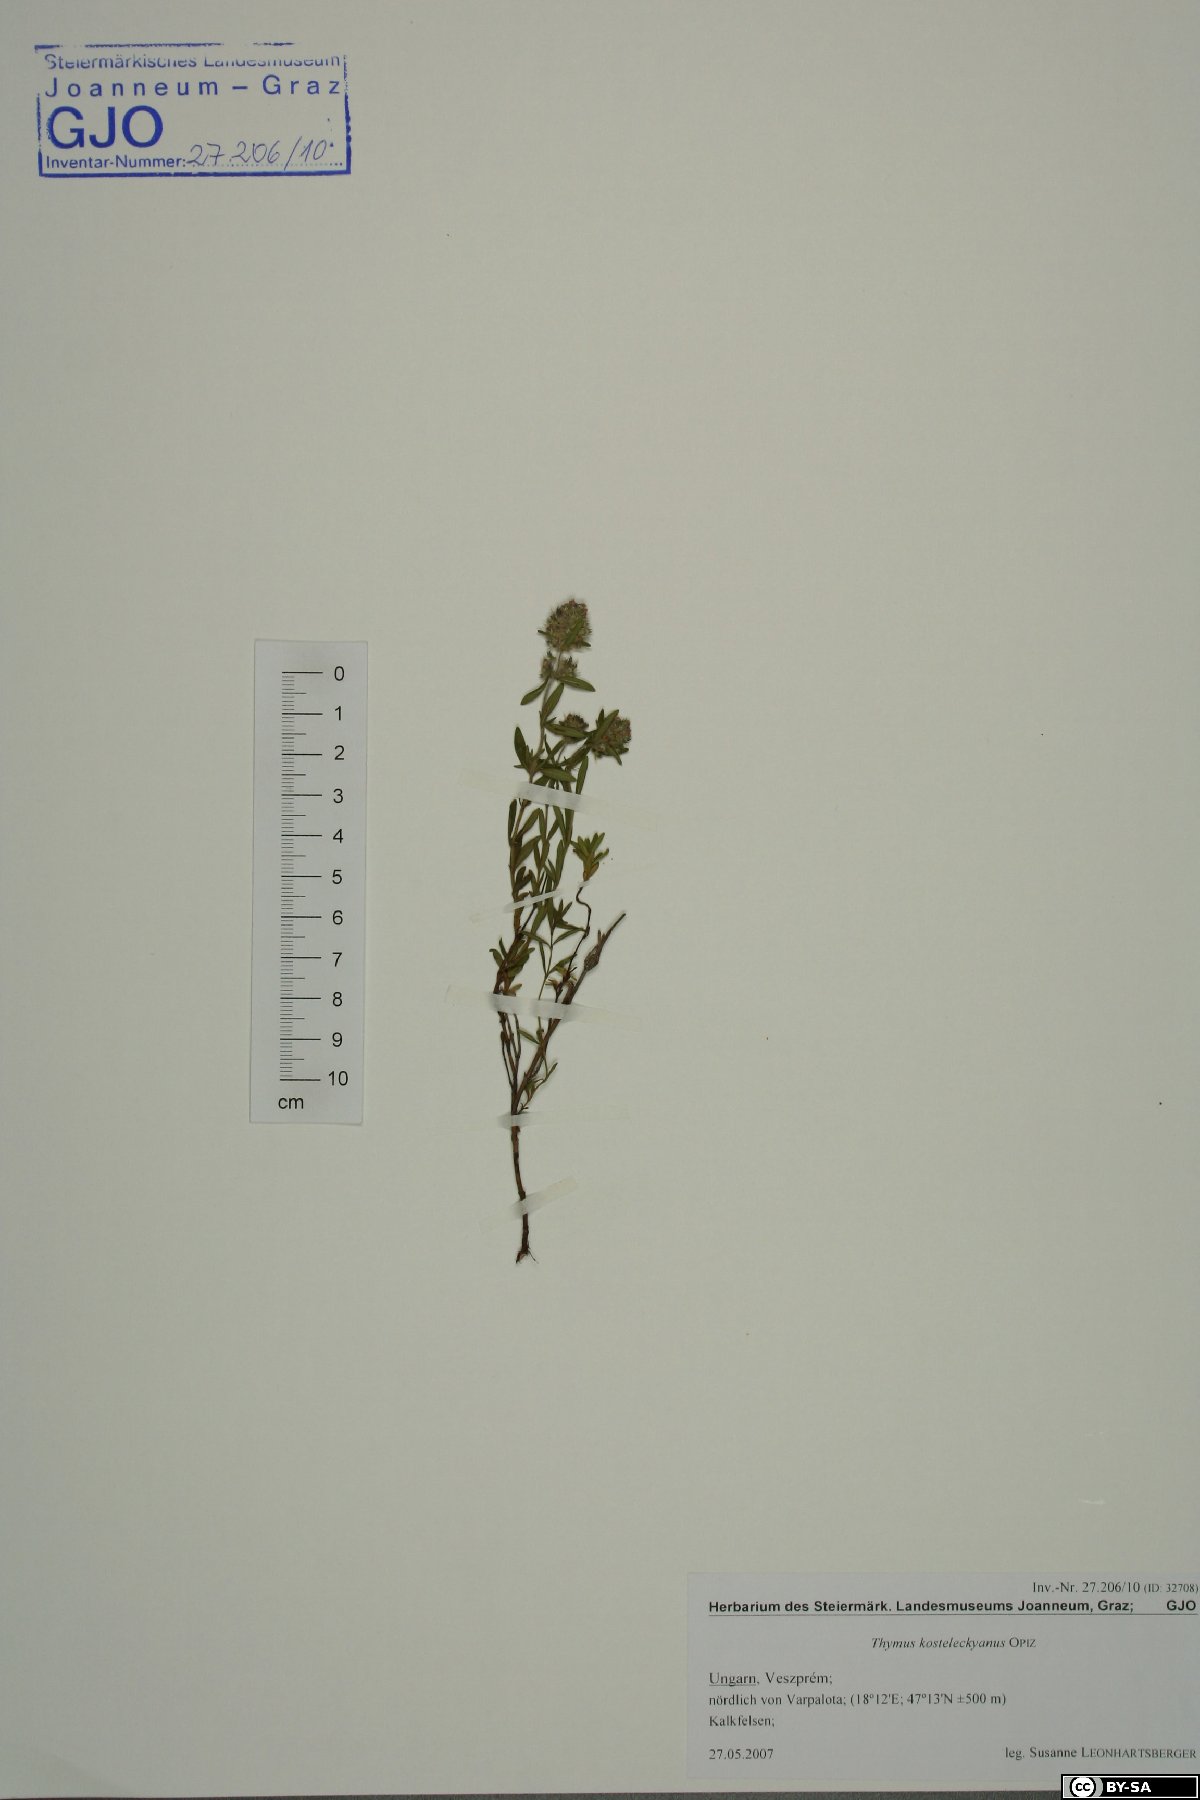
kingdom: Plantae
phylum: Tracheophyta
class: Magnoliopsida
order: Lamiales
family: Lamiaceae
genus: Thymus
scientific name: Thymus kosteleckyanus
